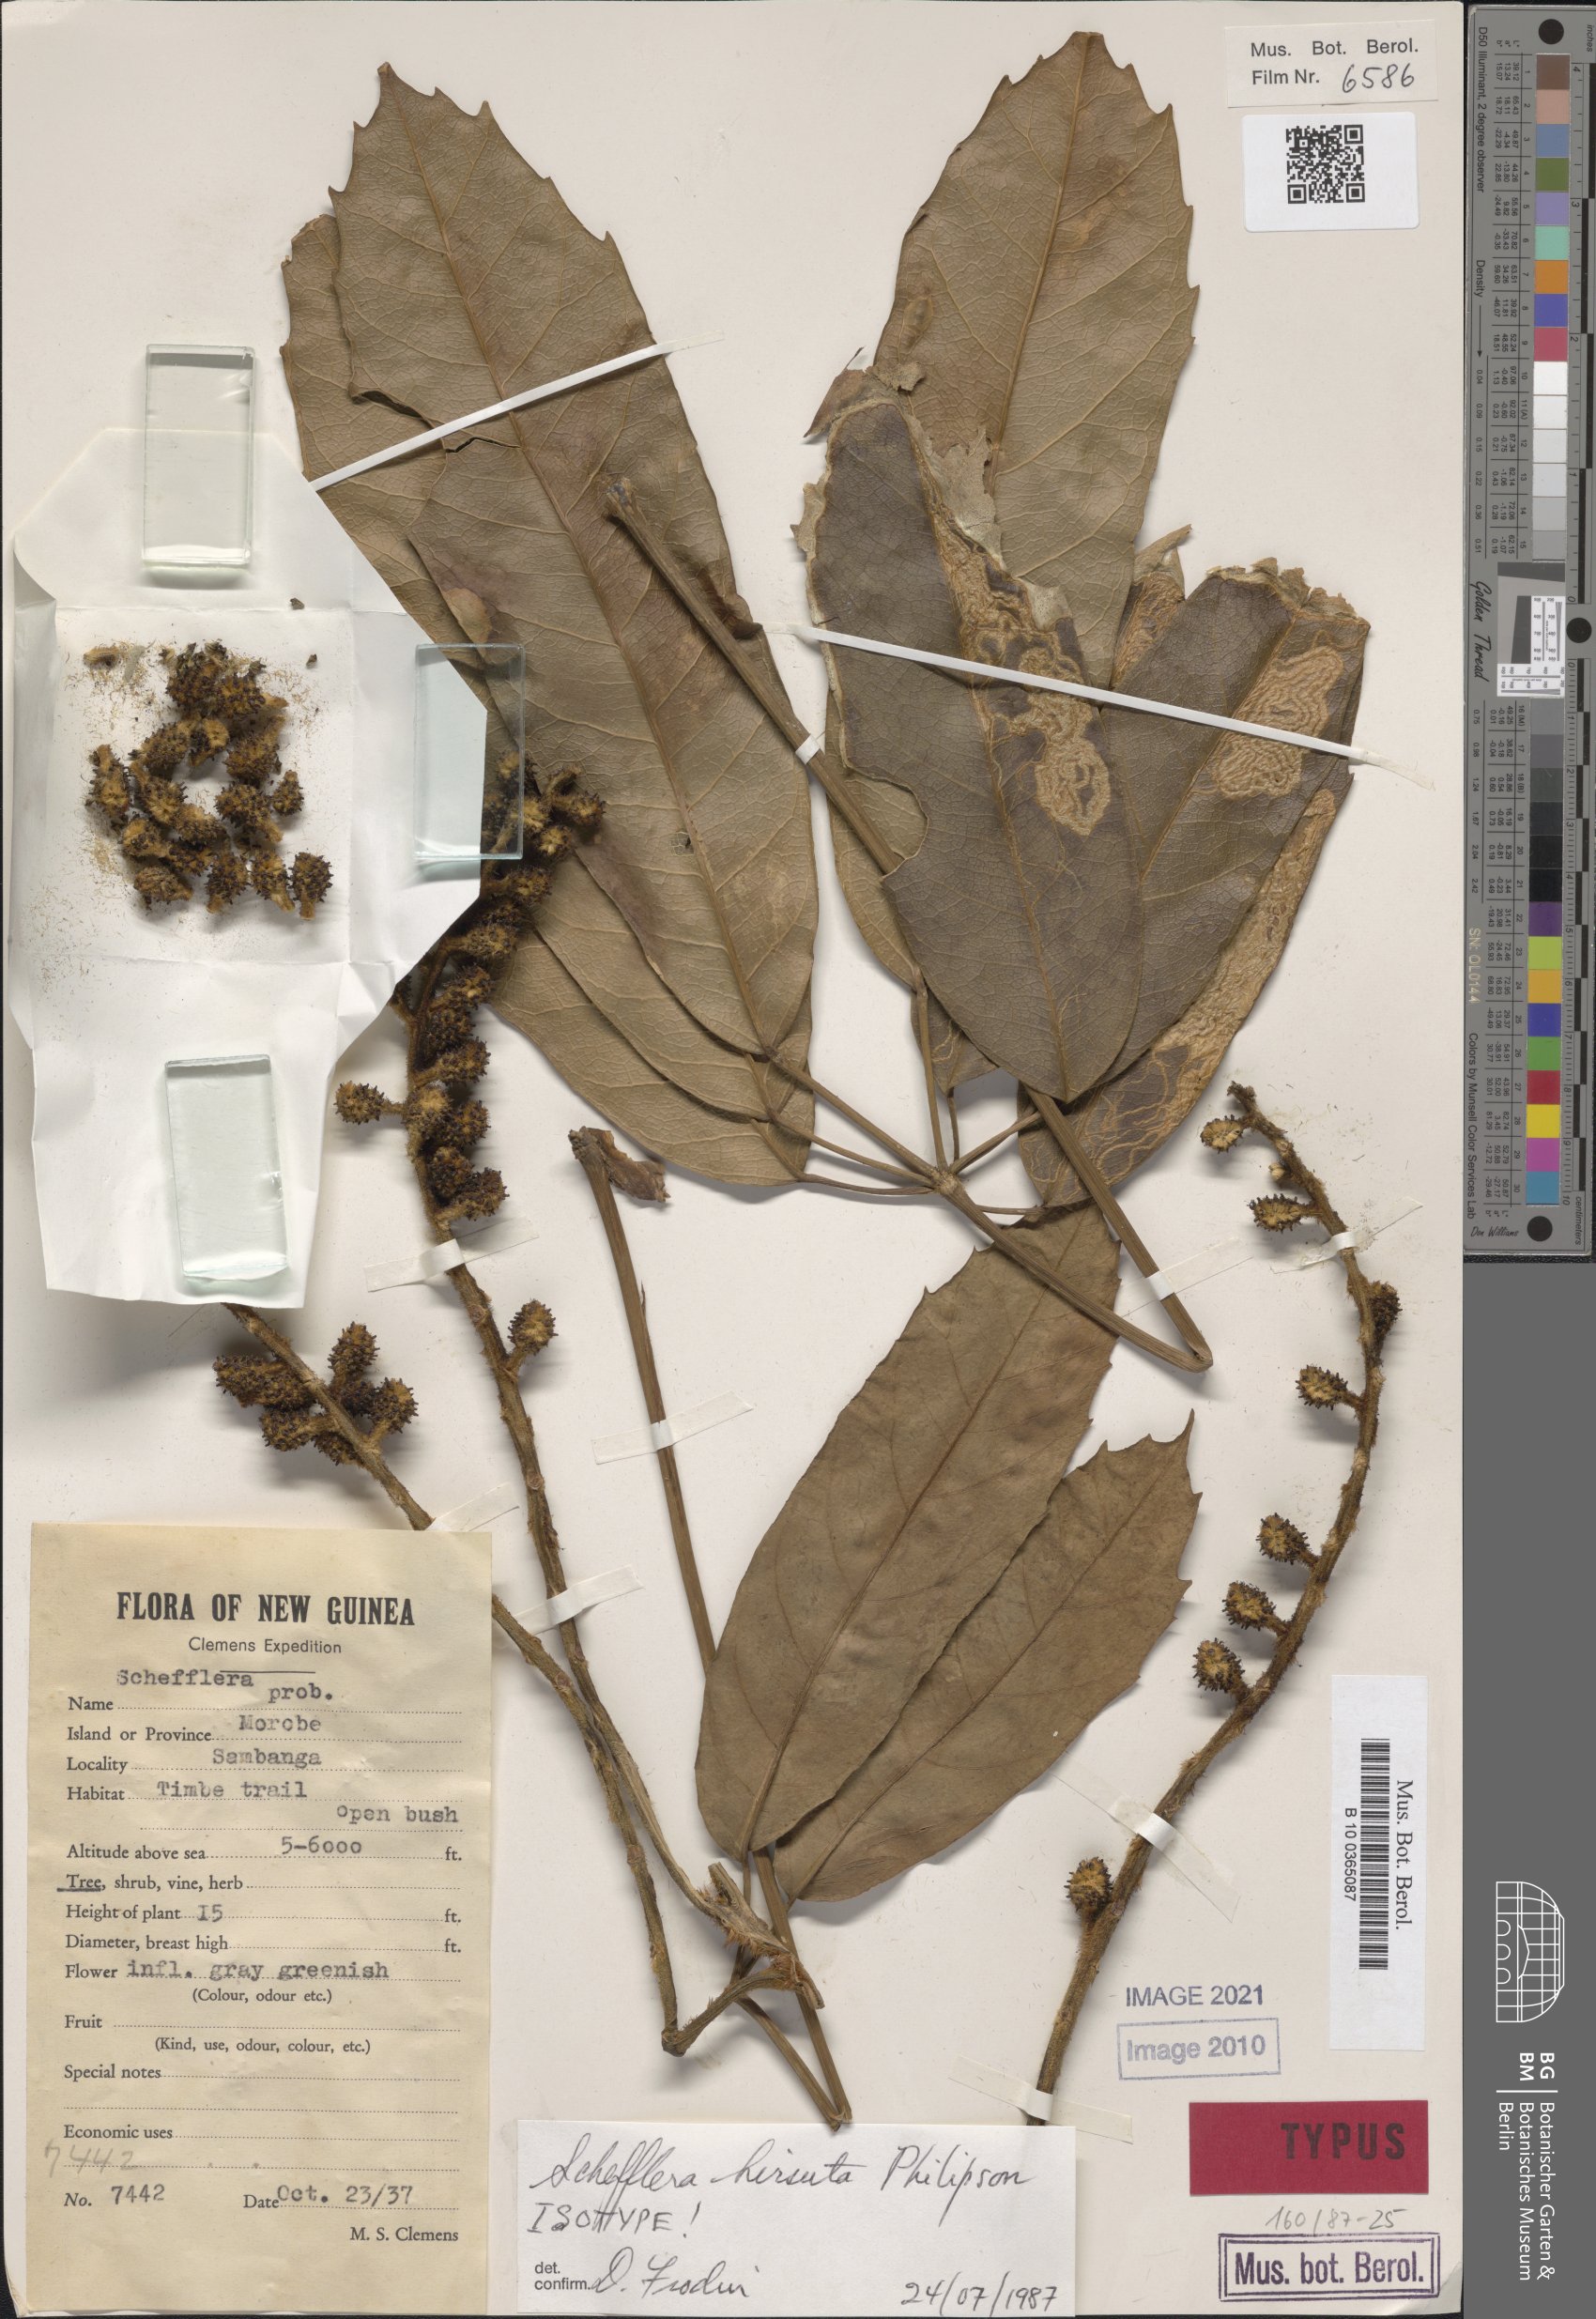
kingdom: Plantae
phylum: Tracheophyta
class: Magnoliopsida
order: Apiales
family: Araliaceae
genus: Heptapleurum
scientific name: Heptapleurum hirsutum
